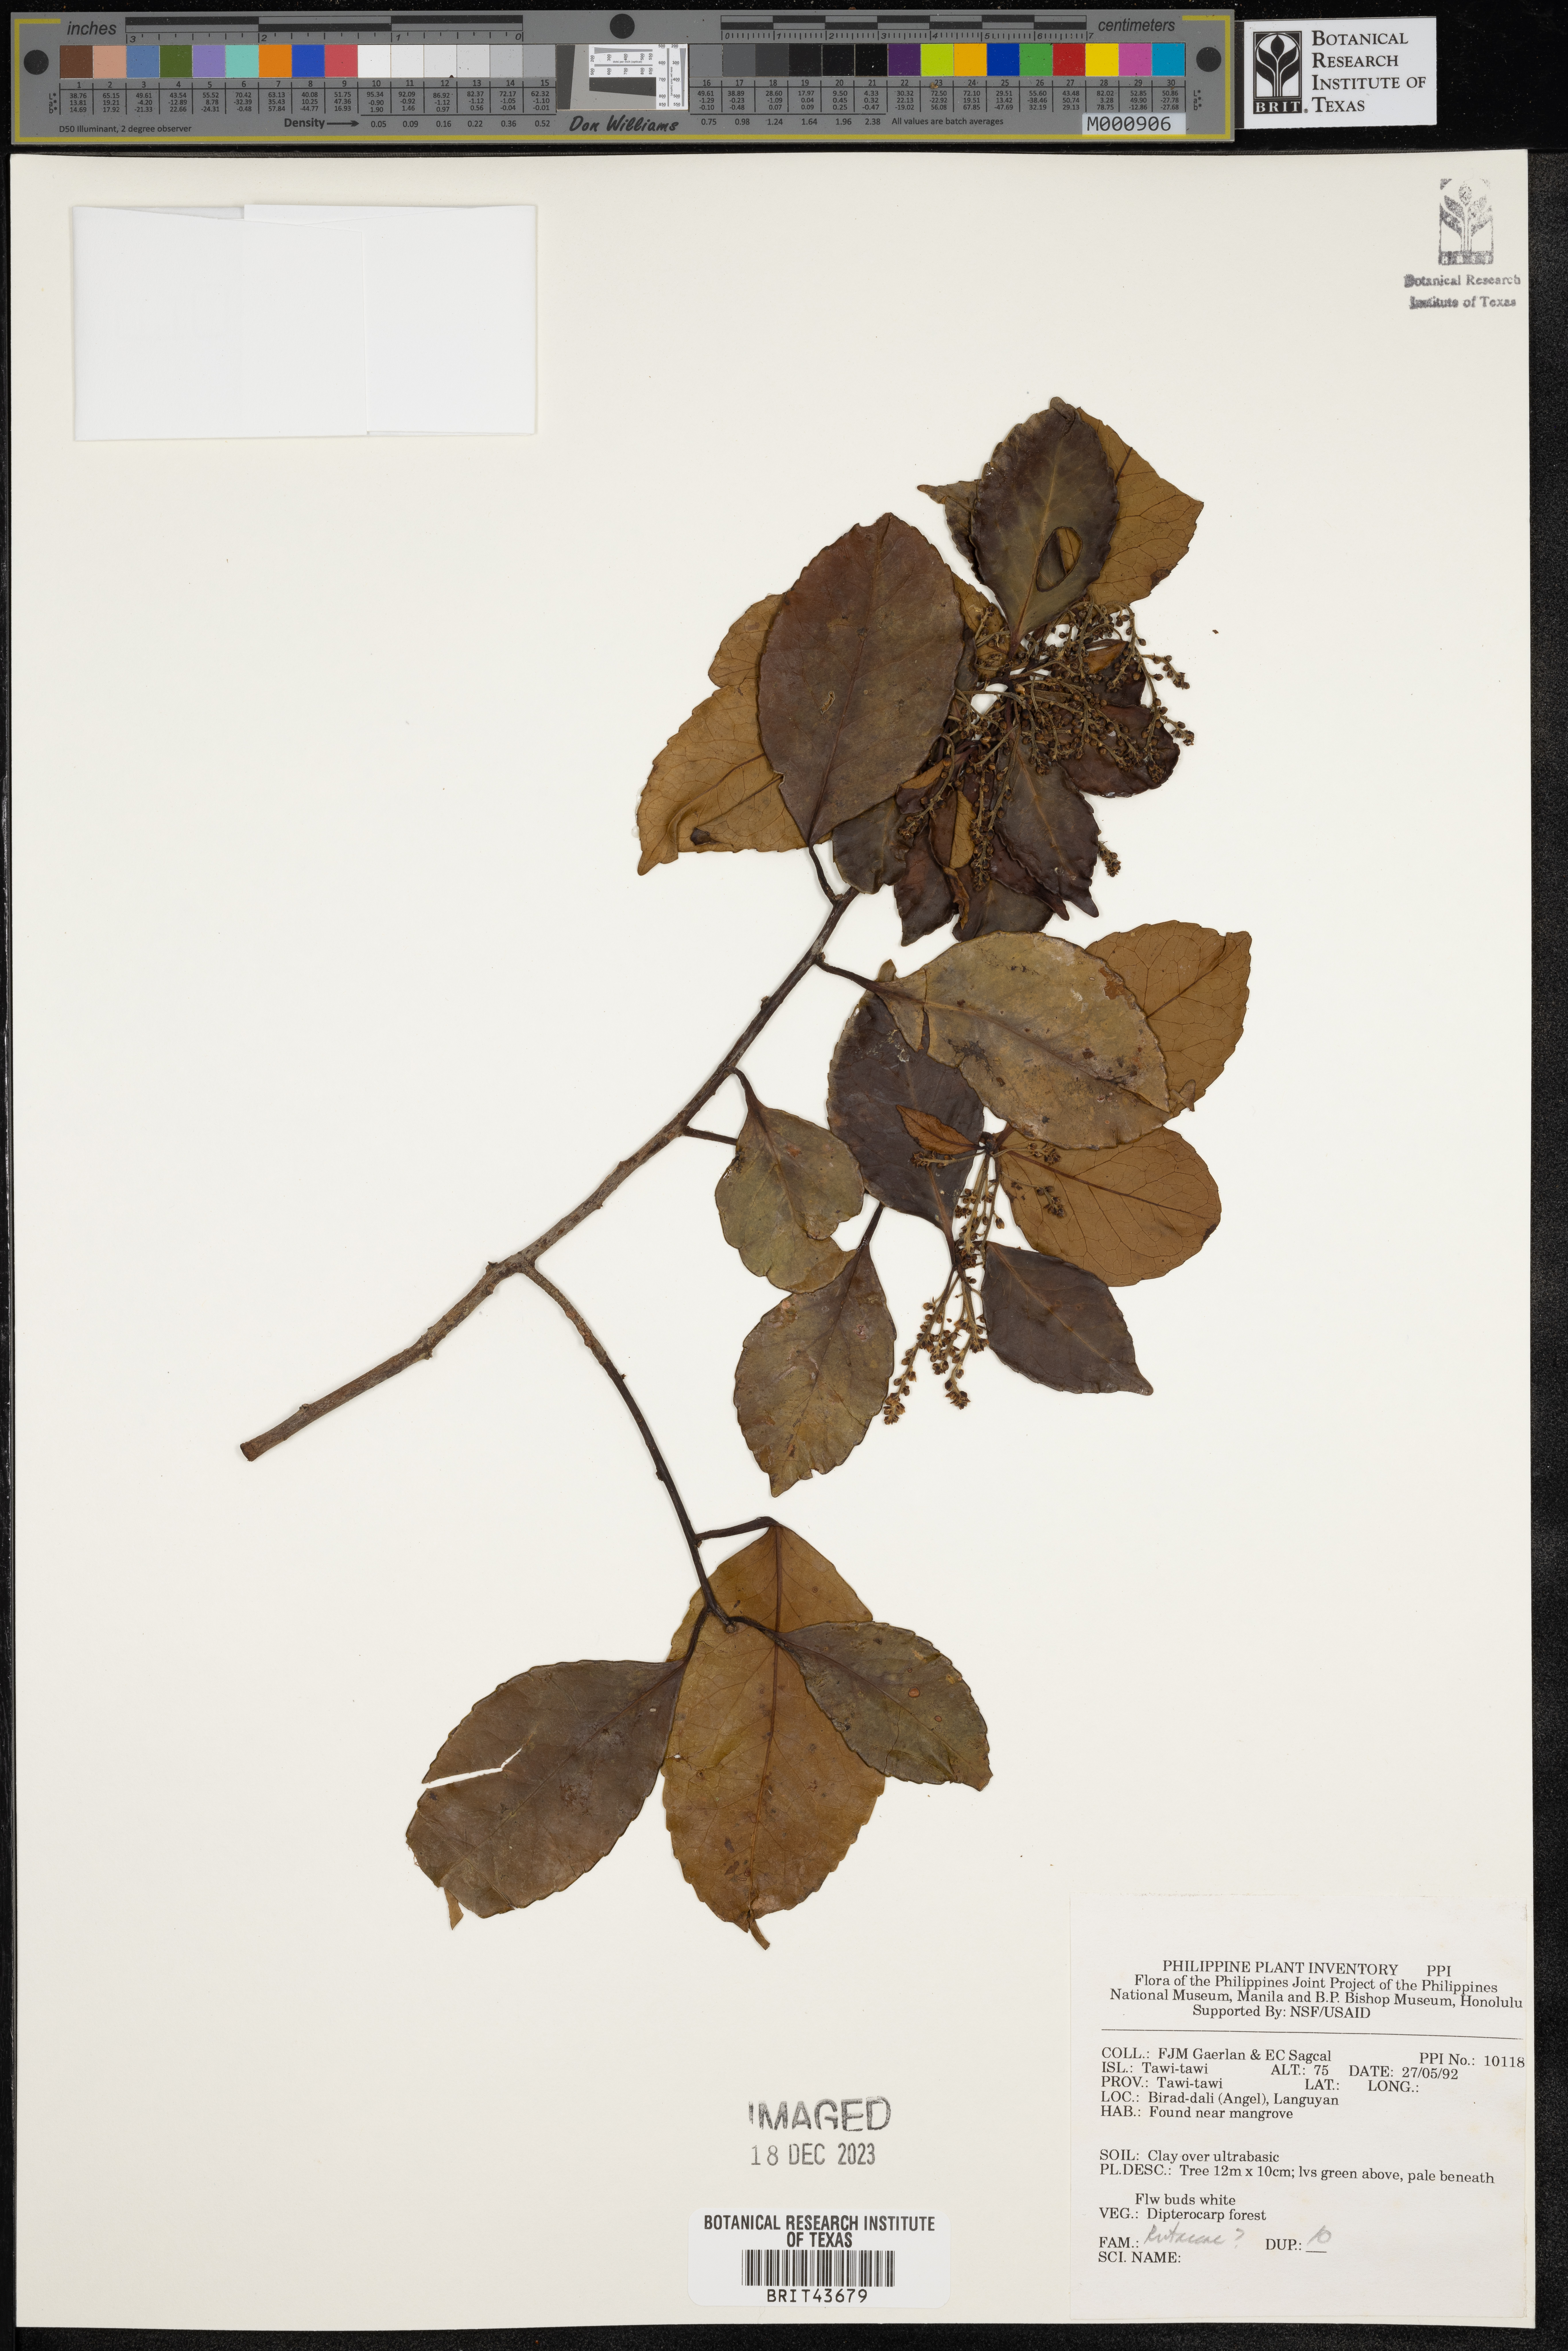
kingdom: Plantae
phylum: Tracheophyta
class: Magnoliopsida
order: Sapindales
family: Rutaceae
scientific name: Rutaceae
